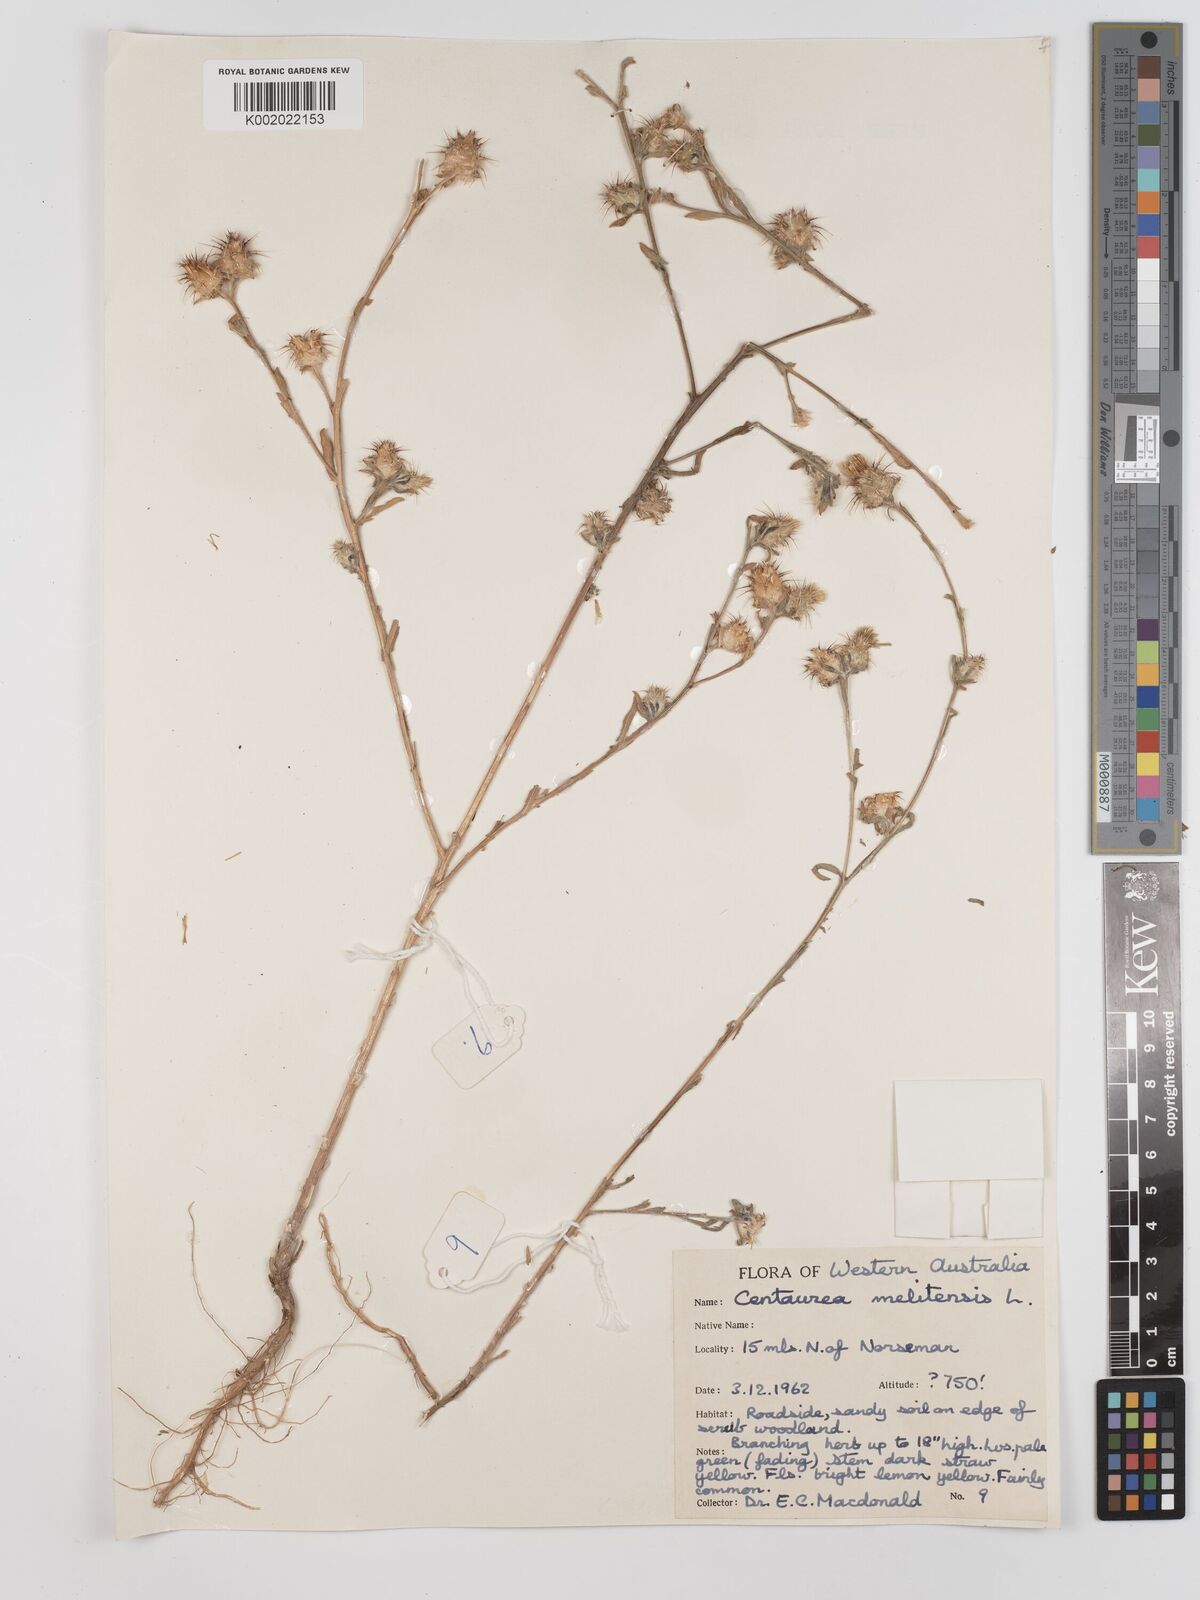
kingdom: Plantae
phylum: Tracheophyta
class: Magnoliopsida
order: Asterales
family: Asteraceae
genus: Centaurea
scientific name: Centaurea melitensis
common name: Maltese star-thistle
